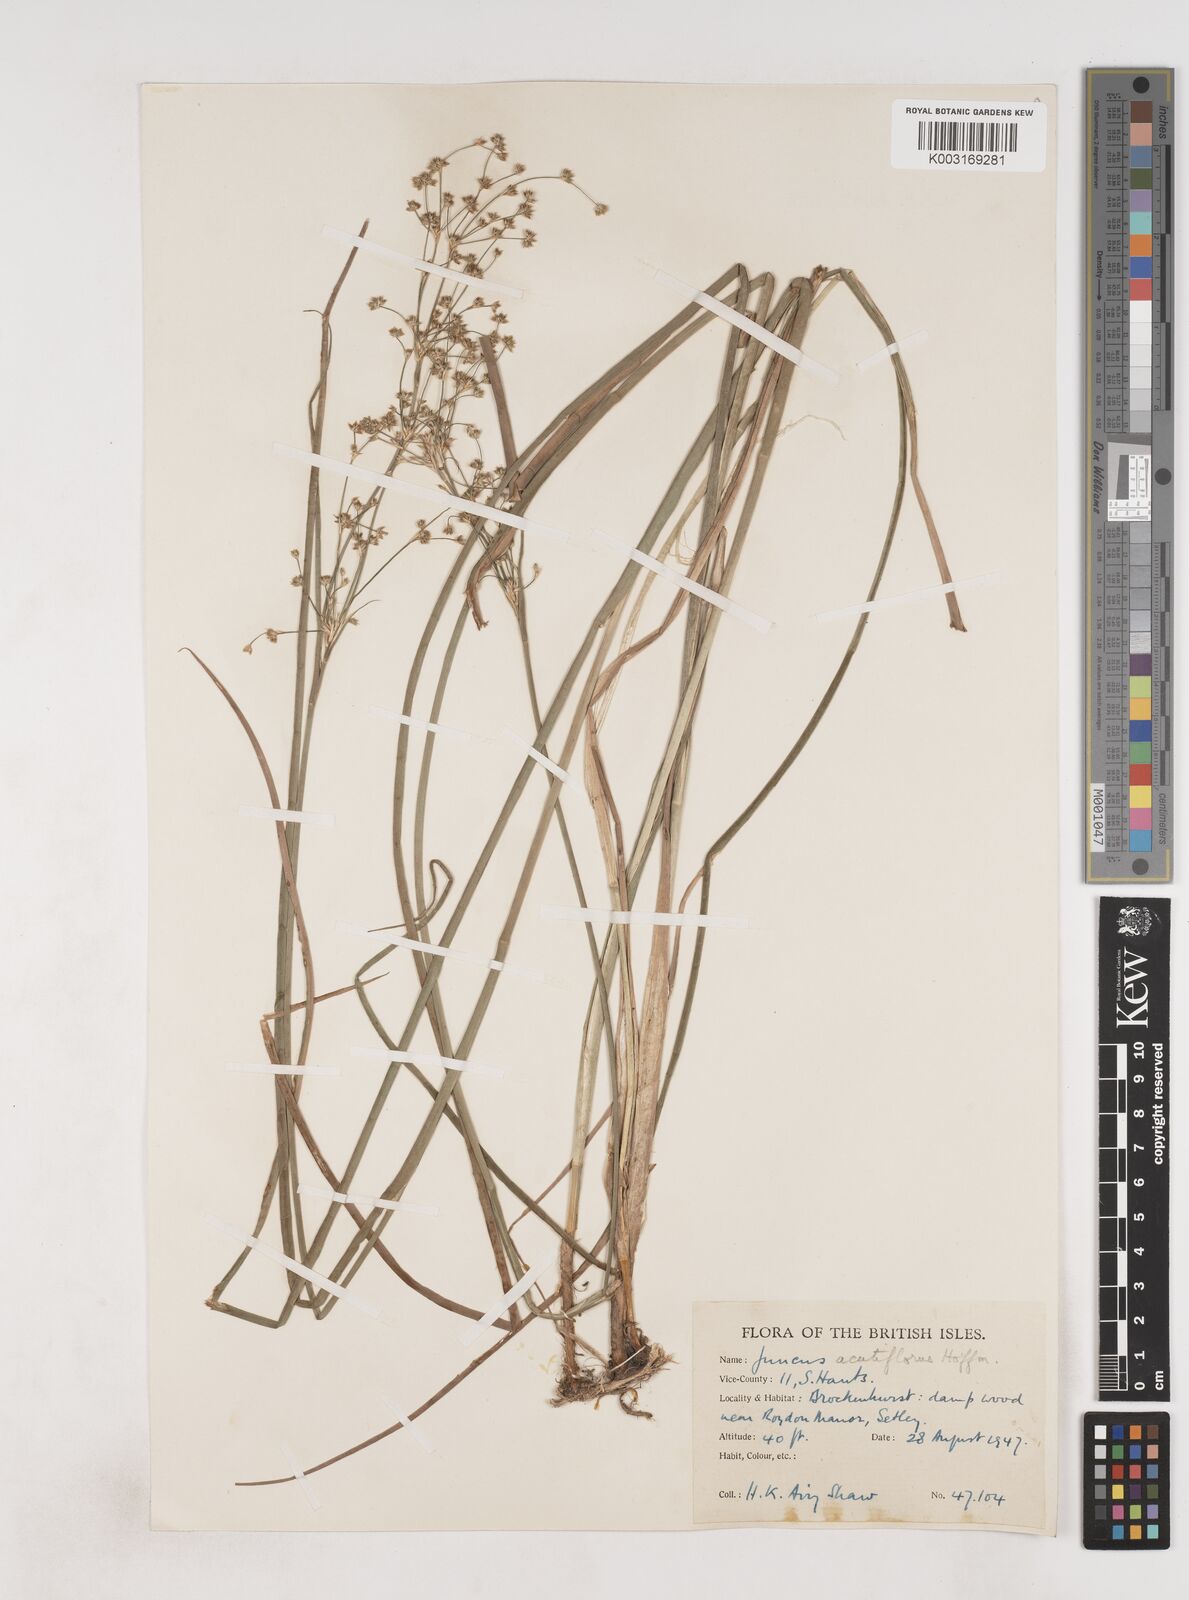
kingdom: Plantae
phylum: Tracheophyta
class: Liliopsida
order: Poales
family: Juncaceae
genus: Juncus
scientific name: Juncus acutiflorus
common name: Sharp-flowered rush
